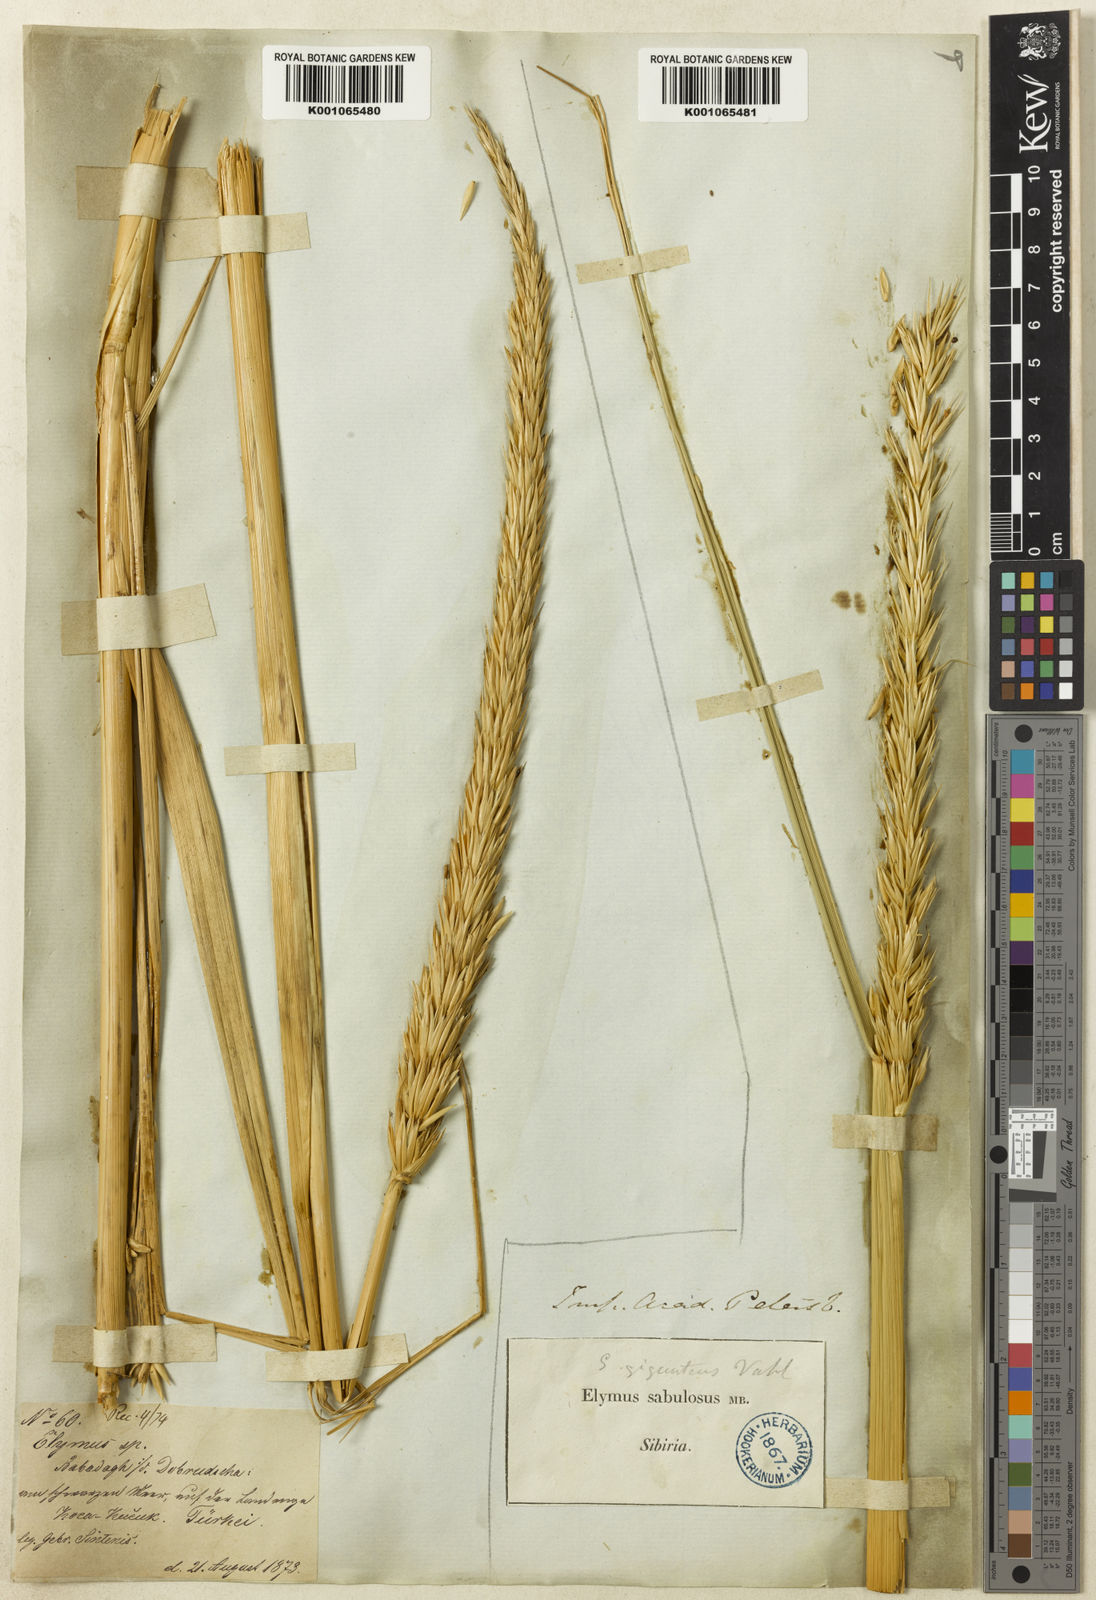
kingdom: Plantae
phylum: Tracheophyta
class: Liliopsida
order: Poales
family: Poaceae
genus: Leymus
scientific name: Leymus racemosus
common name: Mammoth wildrye
